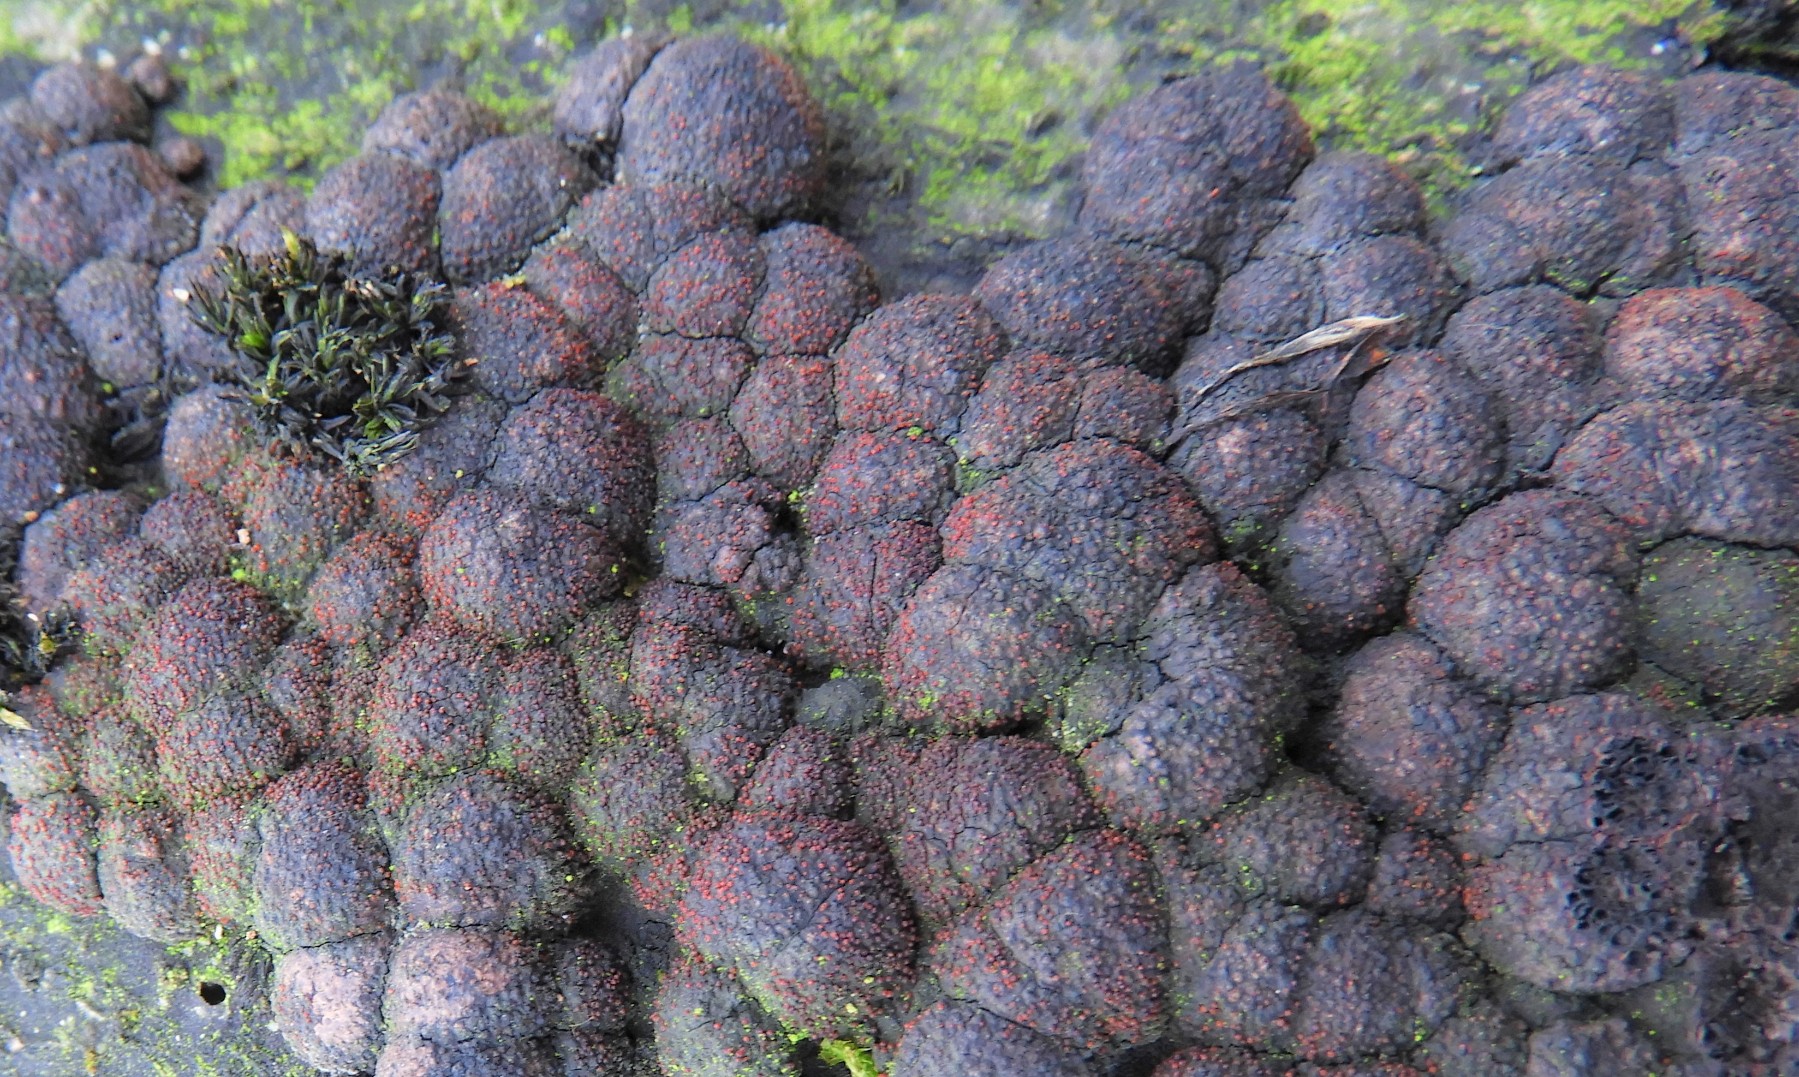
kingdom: Fungi
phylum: Ascomycota
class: Sordariomycetes
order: Hypocreales
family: Nectriaceae
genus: Cosmospora
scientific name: Cosmospora arxii
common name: kuljordbær-cinnobersvamp
